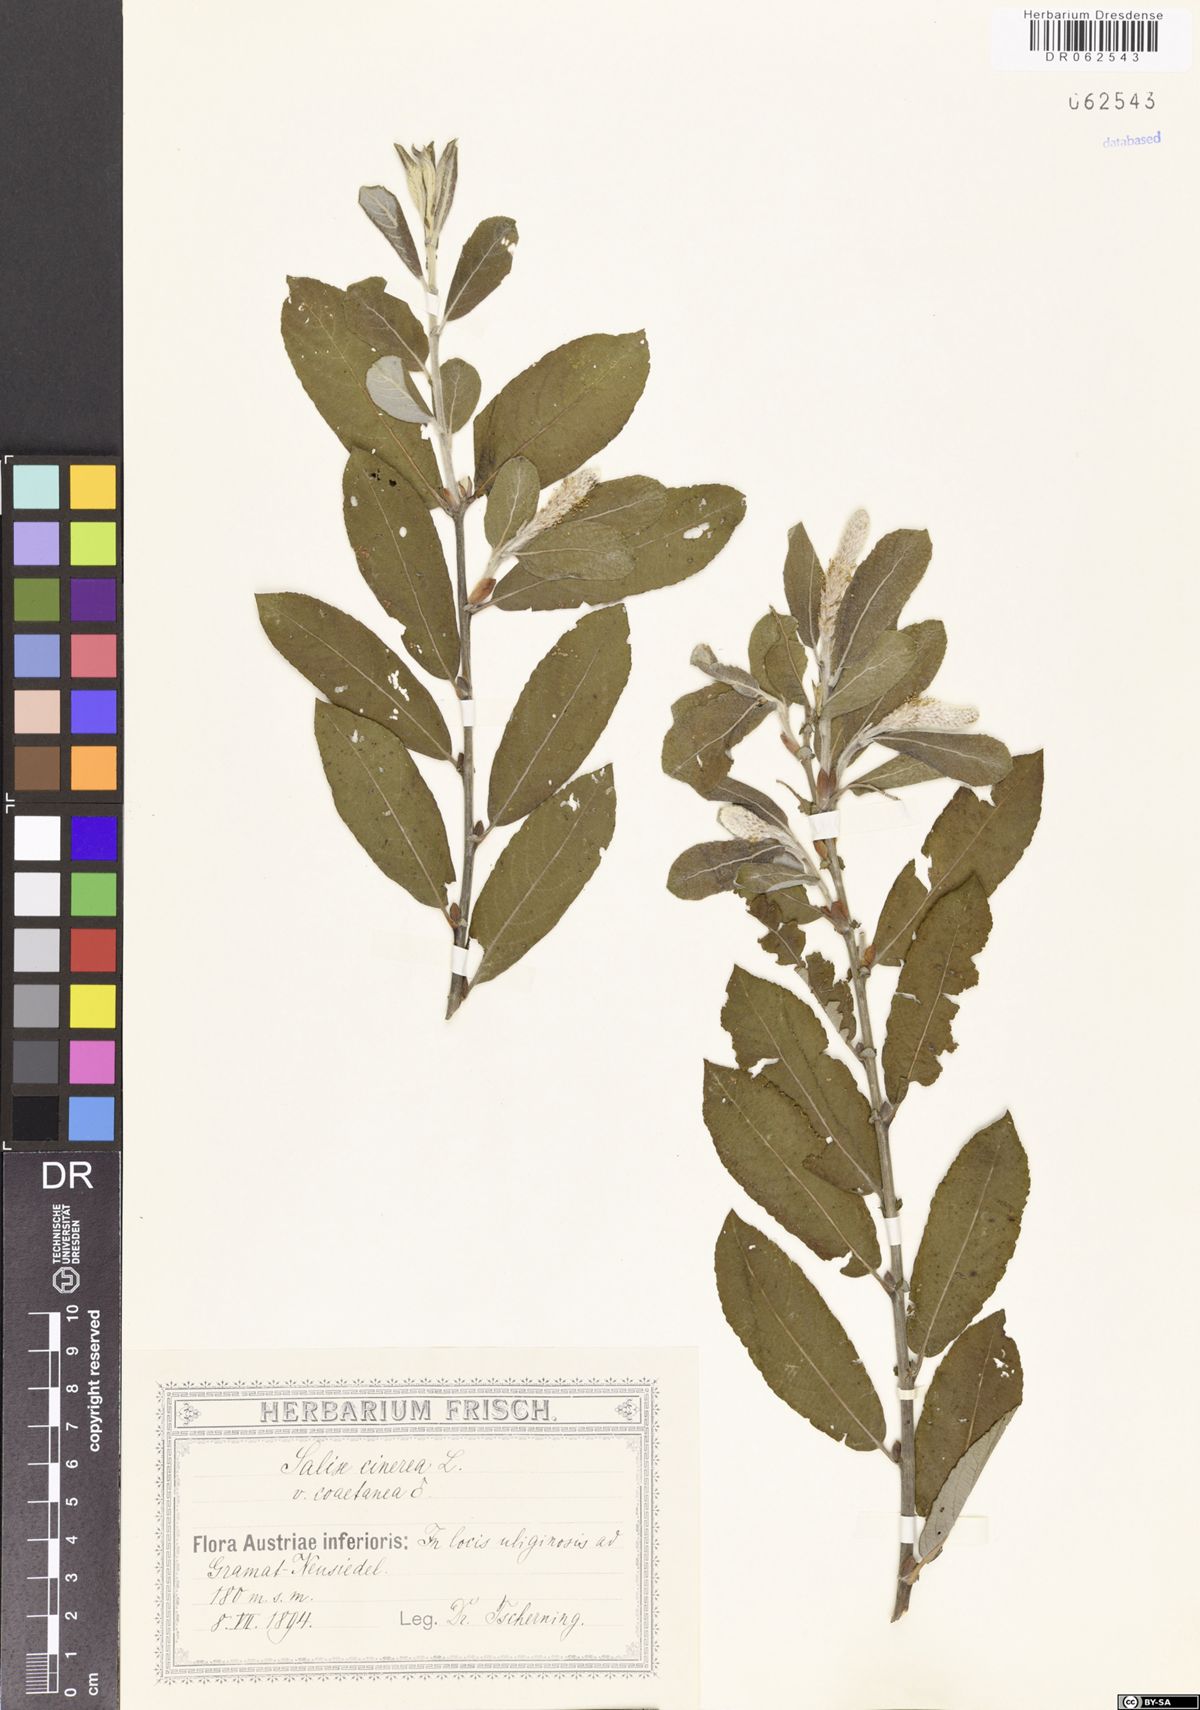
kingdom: Plantae
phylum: Tracheophyta
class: Magnoliopsida
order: Malpighiales
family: Salicaceae
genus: Salix
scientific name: Salix cinerea
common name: Common sallow
